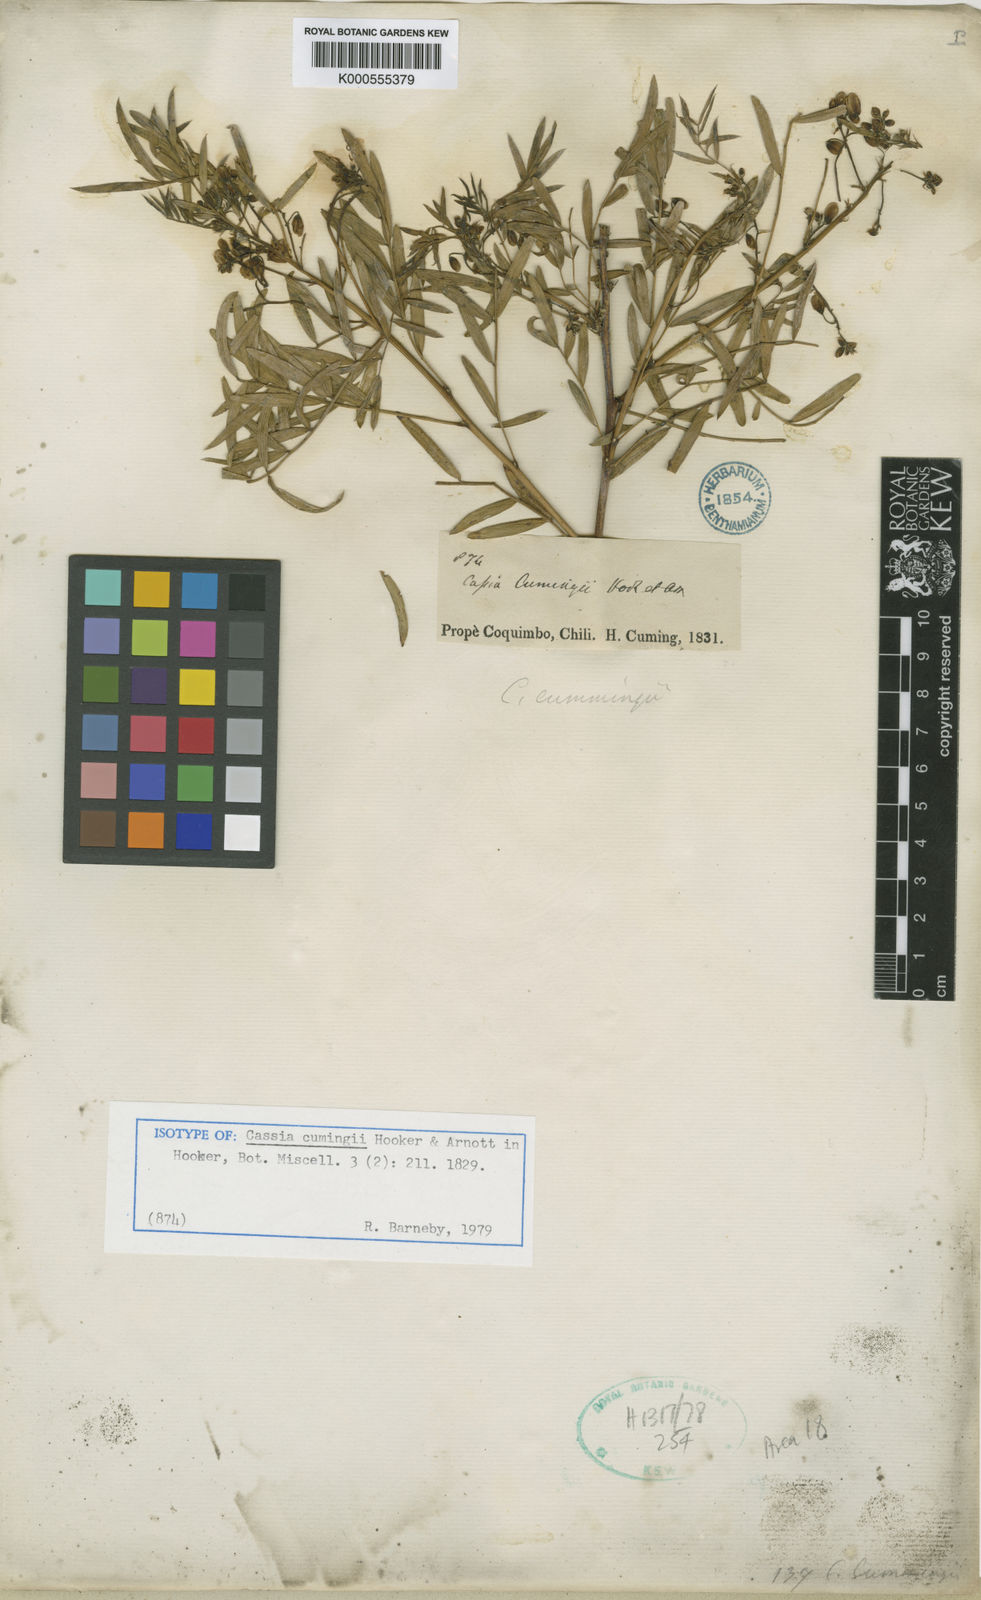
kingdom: Plantae
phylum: Tracheophyta
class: Magnoliopsida
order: Fabales
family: Fabaceae
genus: Senna
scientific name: Senna cumingii
